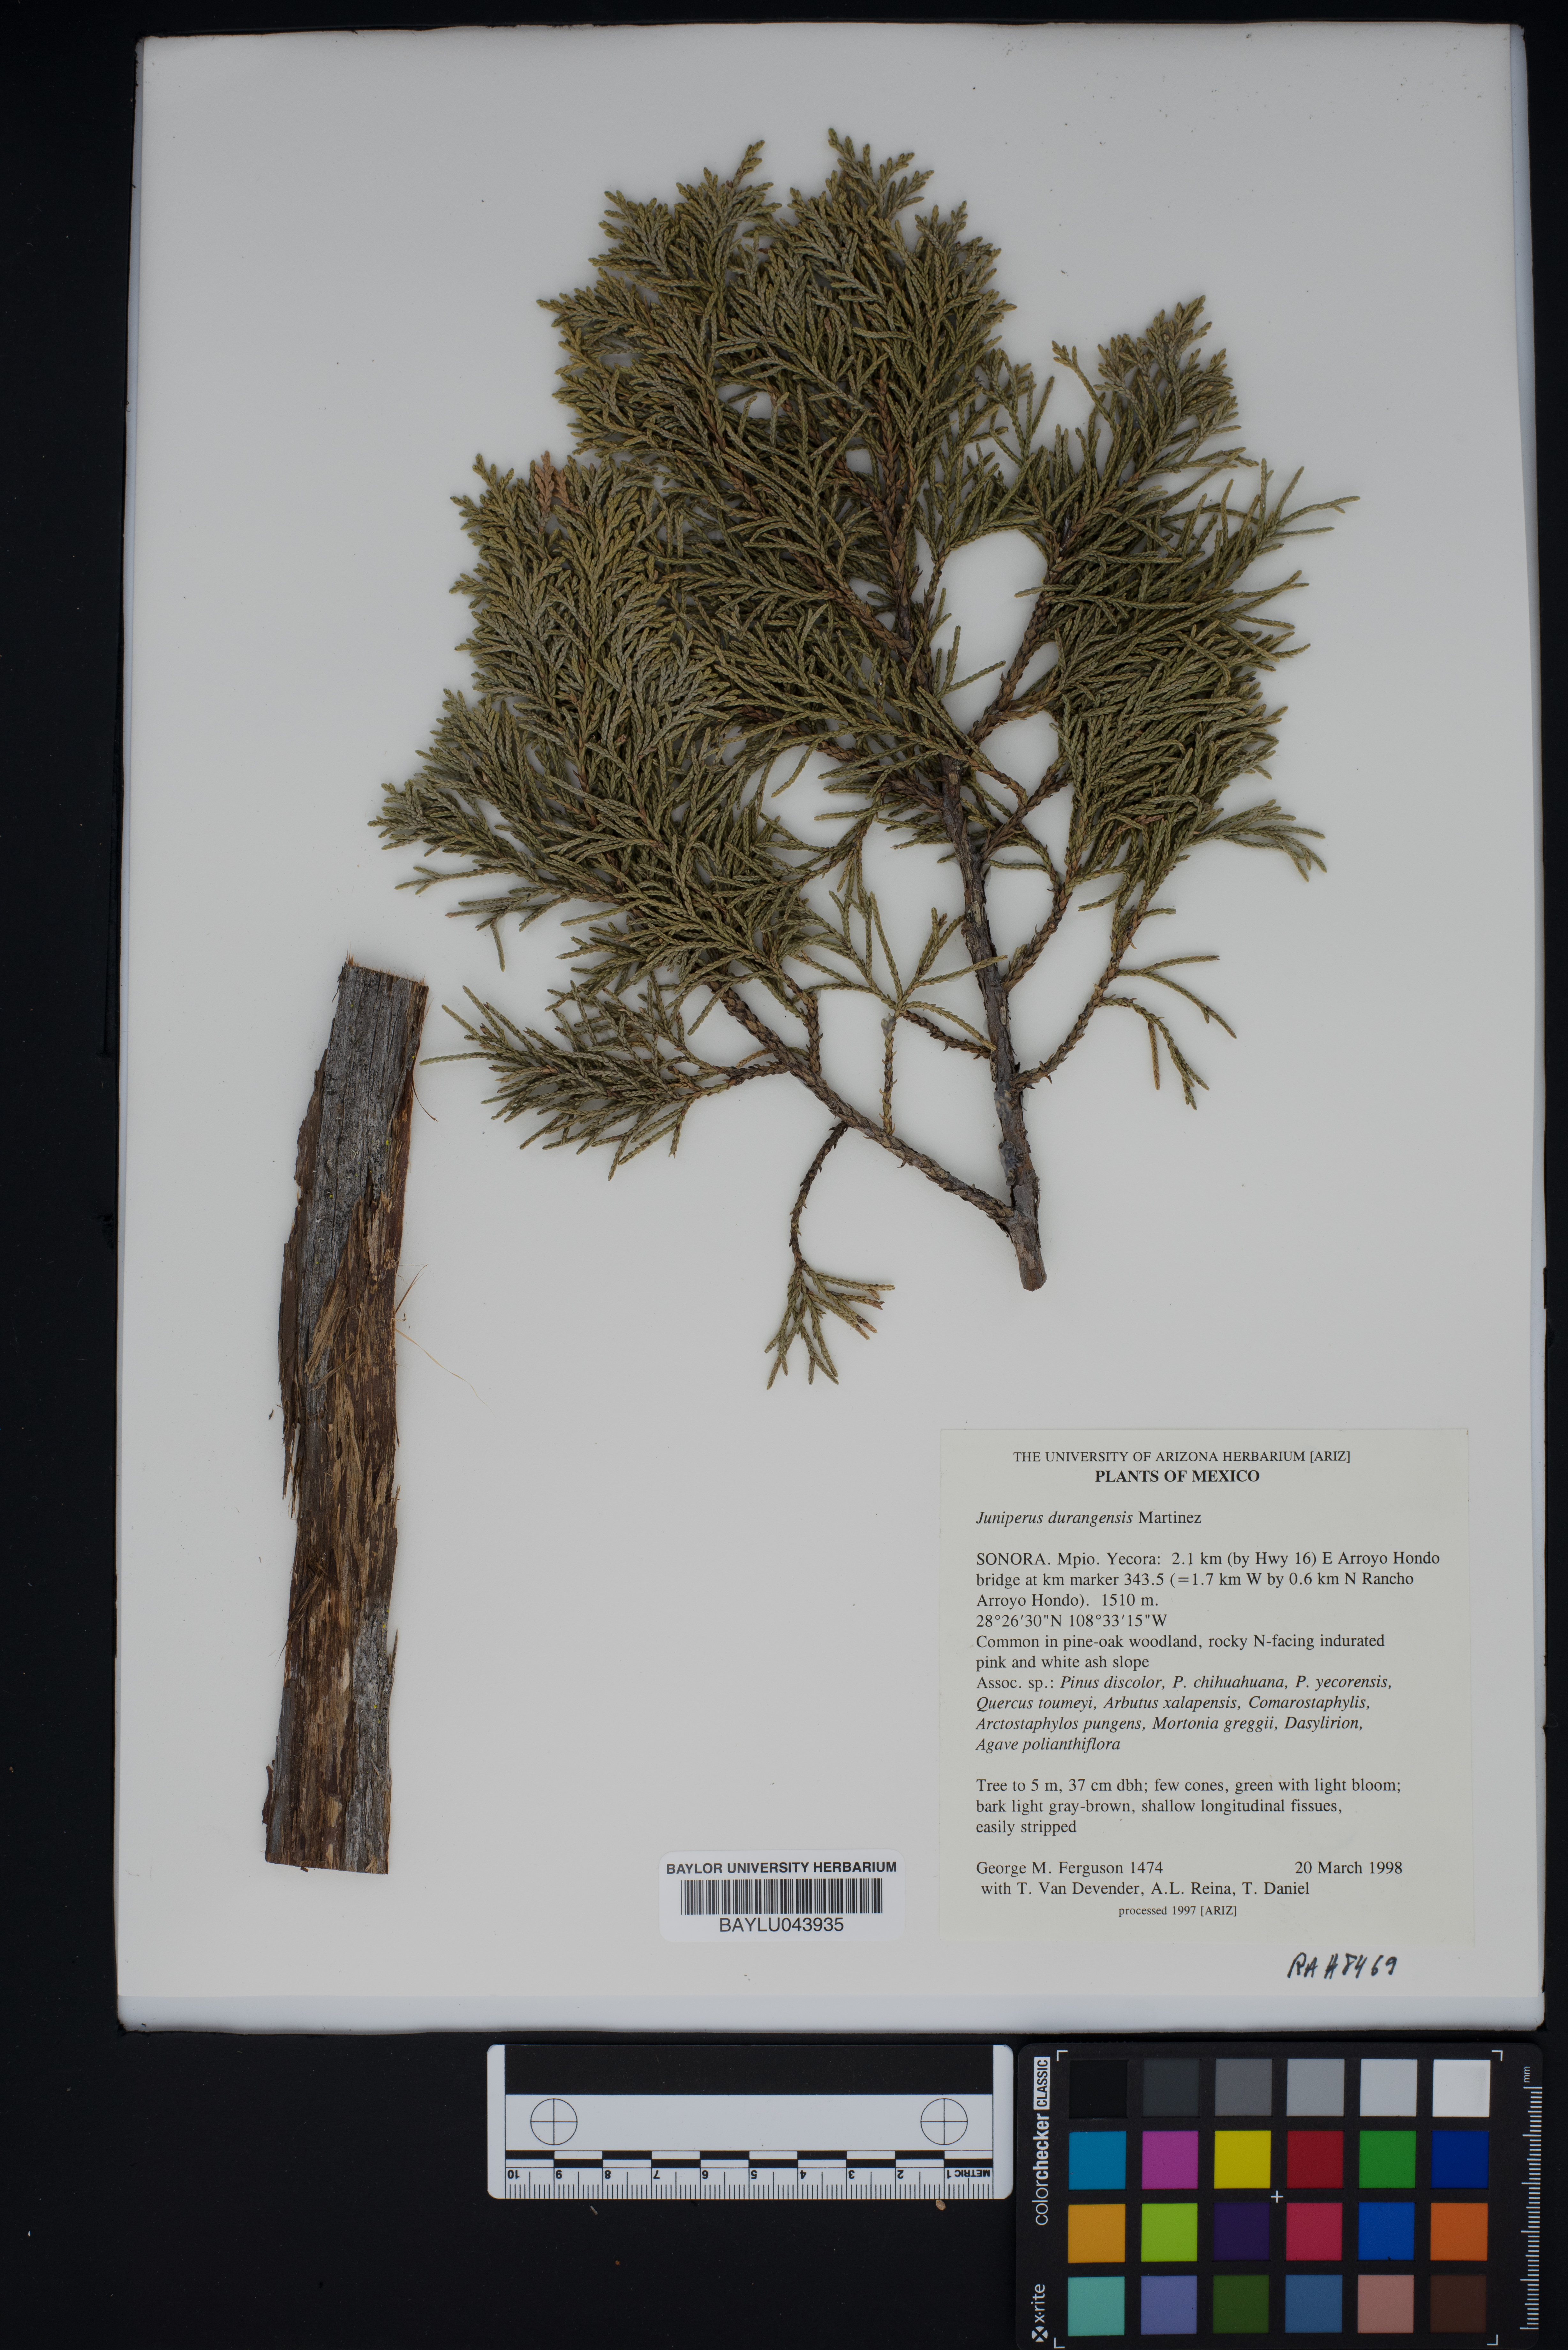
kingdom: Plantae
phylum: Tracheophyta
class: Pinopsida
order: Pinales
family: Cupressaceae
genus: Juniperus
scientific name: Juniperus durangensis
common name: Durango juniper
